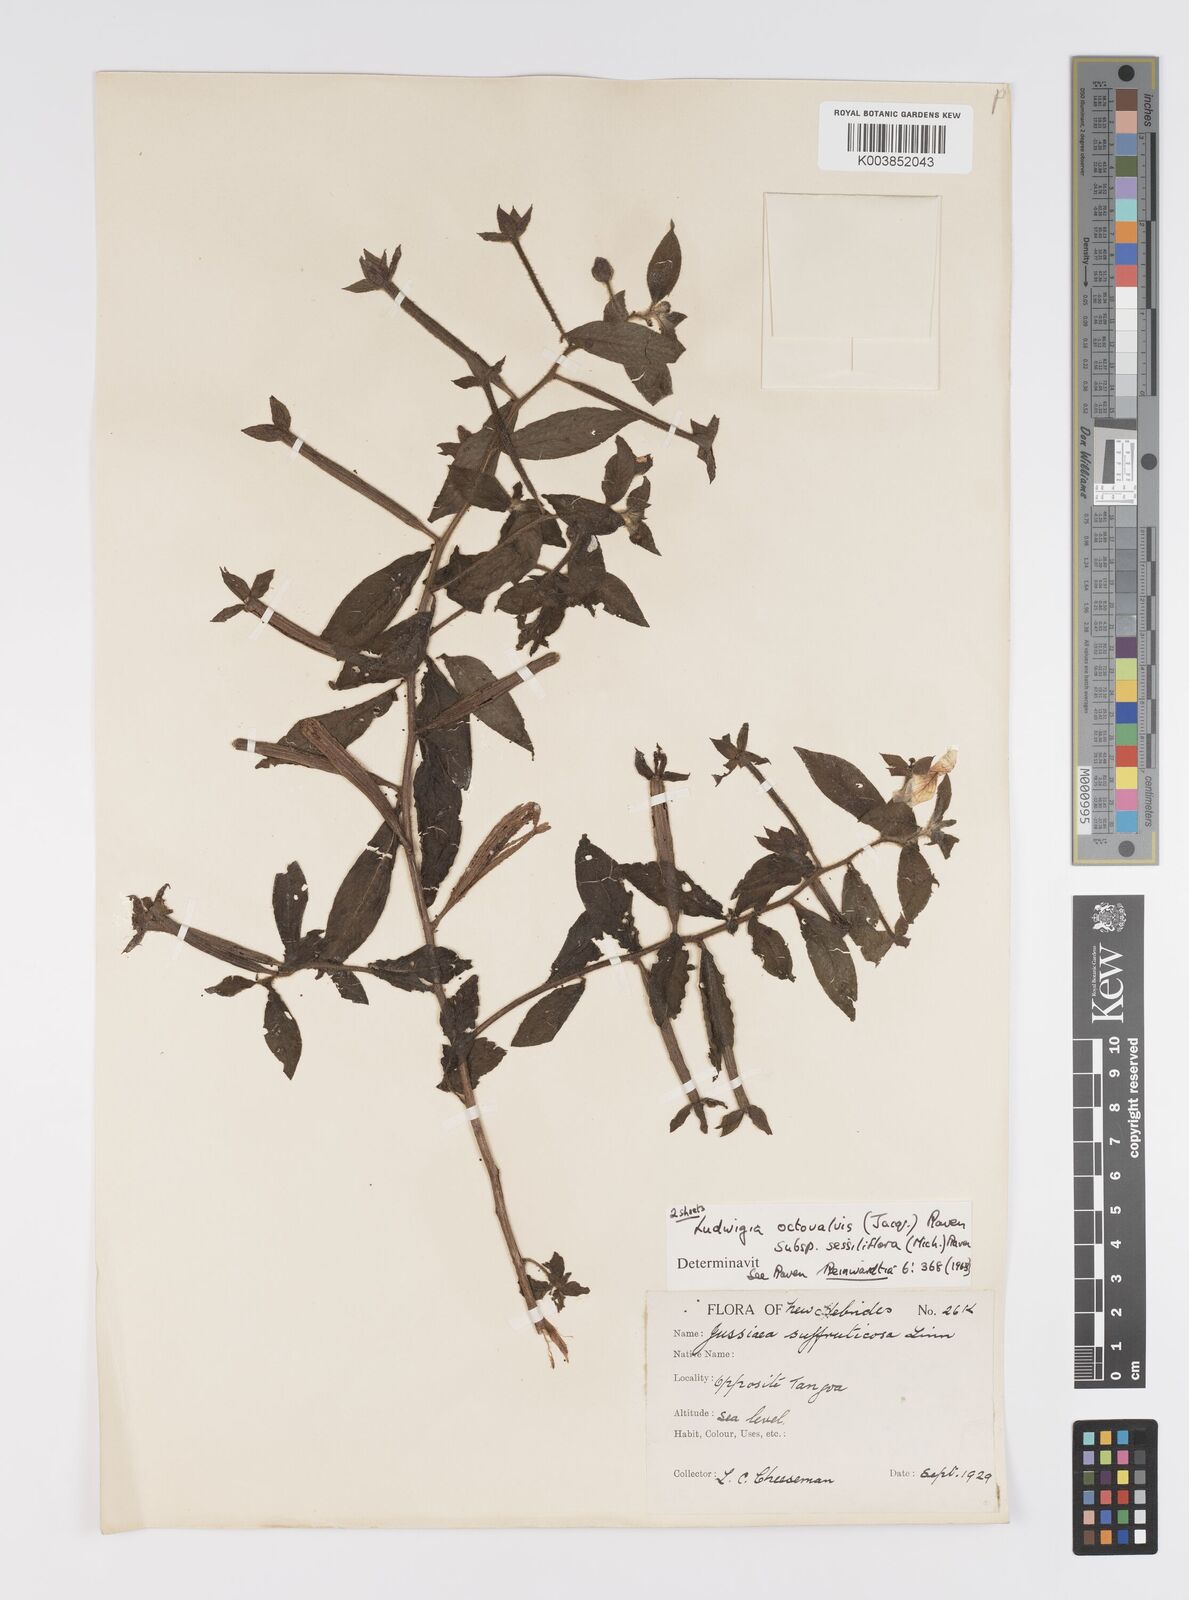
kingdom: Plantae
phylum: Tracheophyta
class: Magnoliopsida
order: Myrtales
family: Onagraceae
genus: Ludwigia
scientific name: Ludwigia octovalvis
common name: Water-primrose
